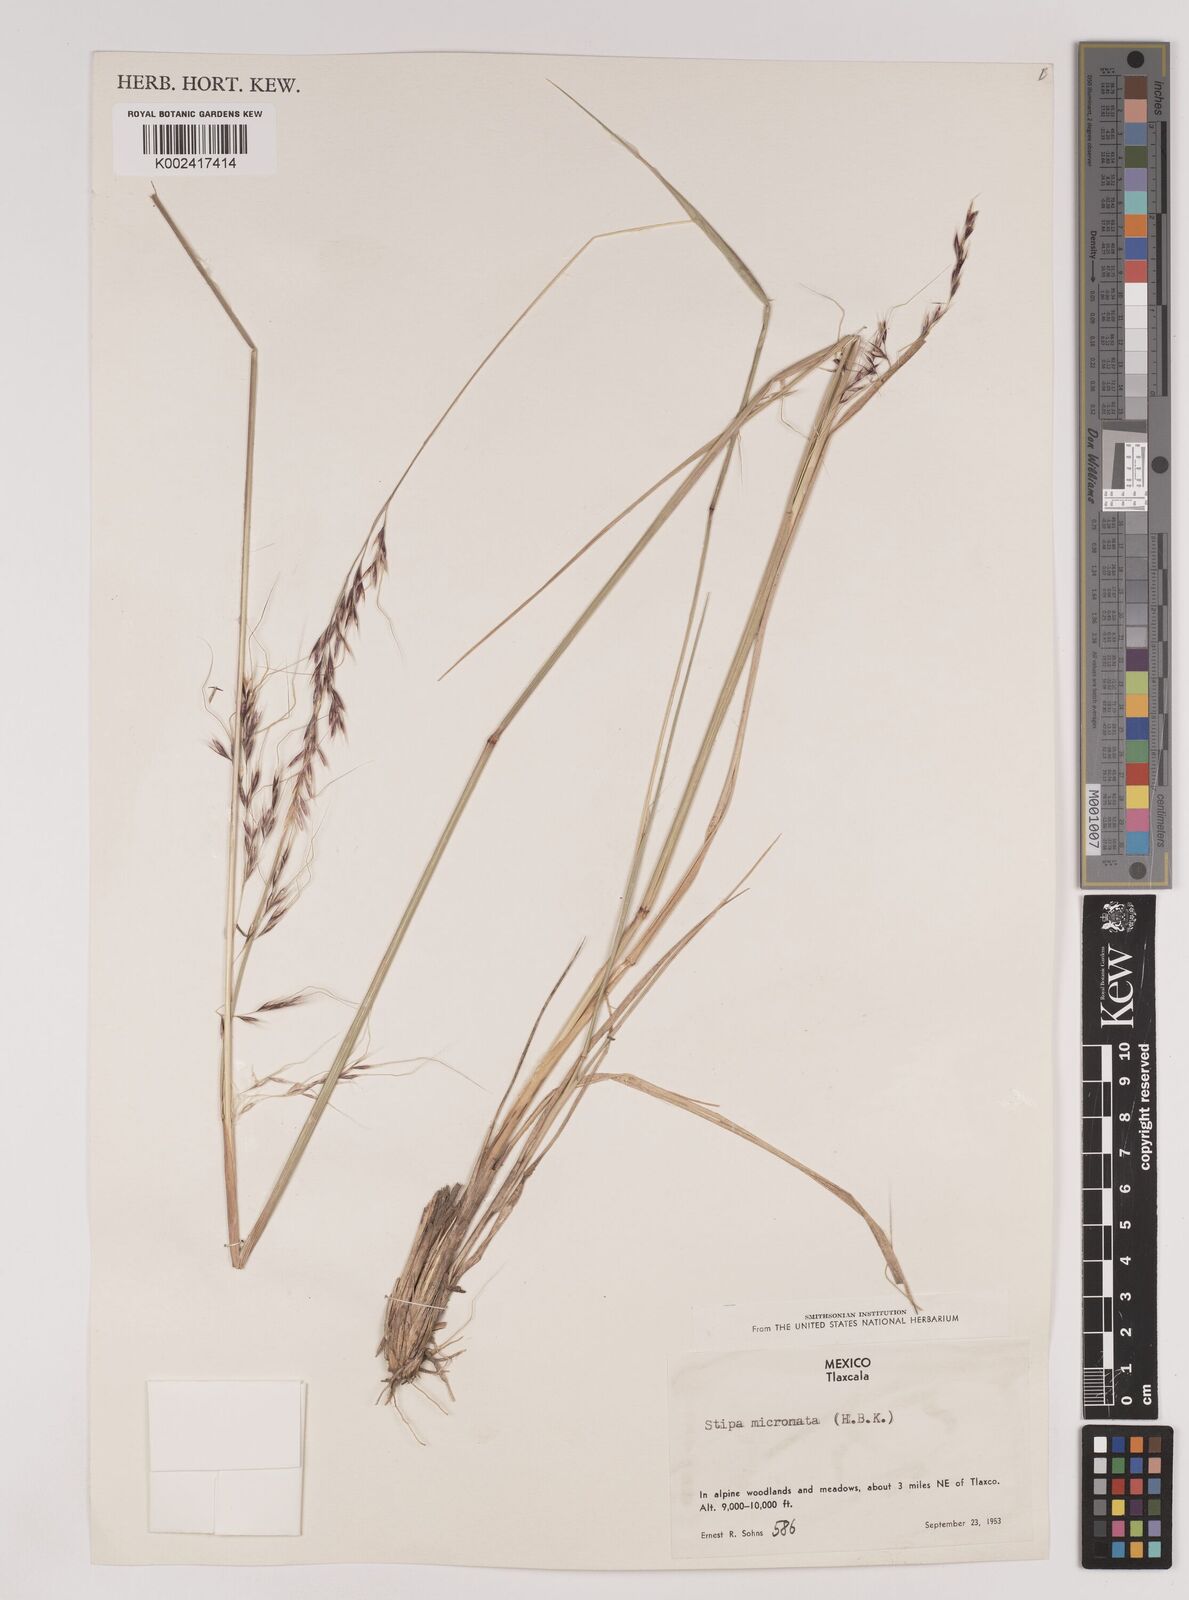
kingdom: Plantae
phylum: Tracheophyta
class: Liliopsida
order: Poales
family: Poaceae
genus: Nassella
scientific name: Nassella mucronata
